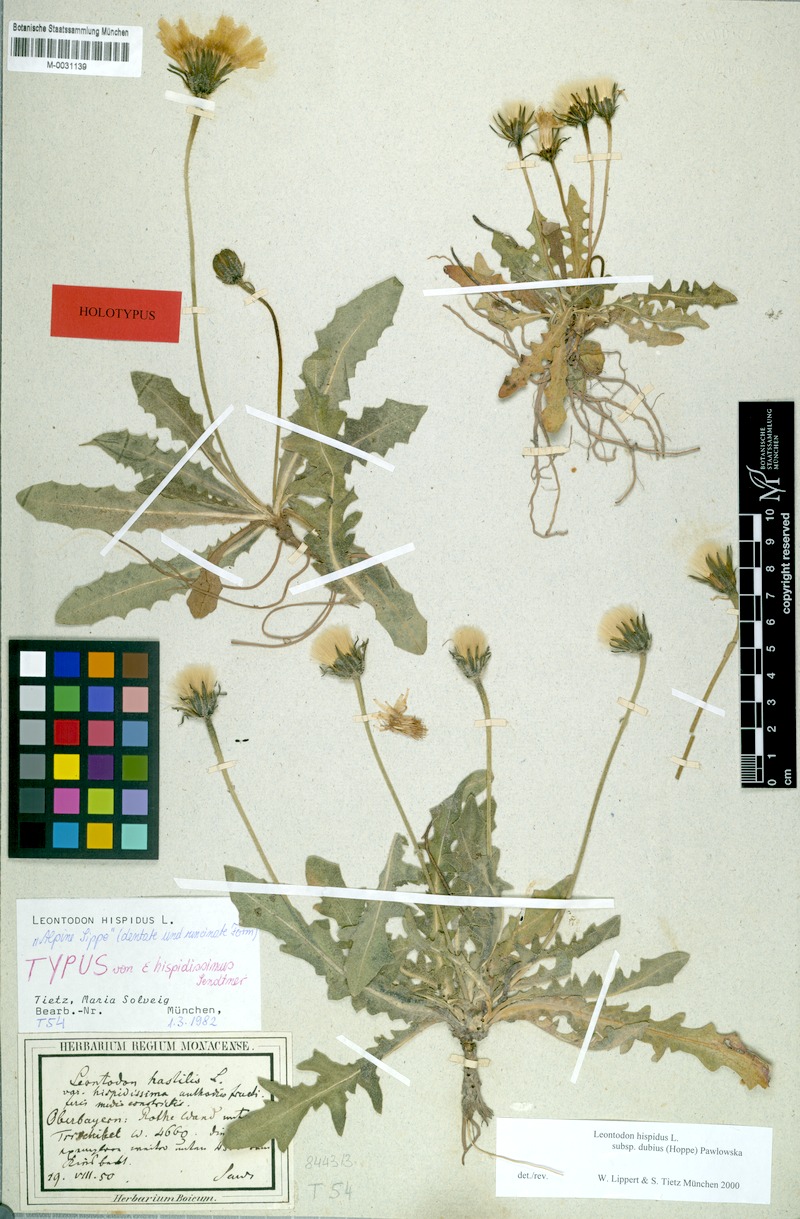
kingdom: Plantae
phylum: Tracheophyta
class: Magnoliopsida
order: Asterales
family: Asteraceae
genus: Leontodon
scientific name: Leontodon hispidus
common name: Rough hawkbit
